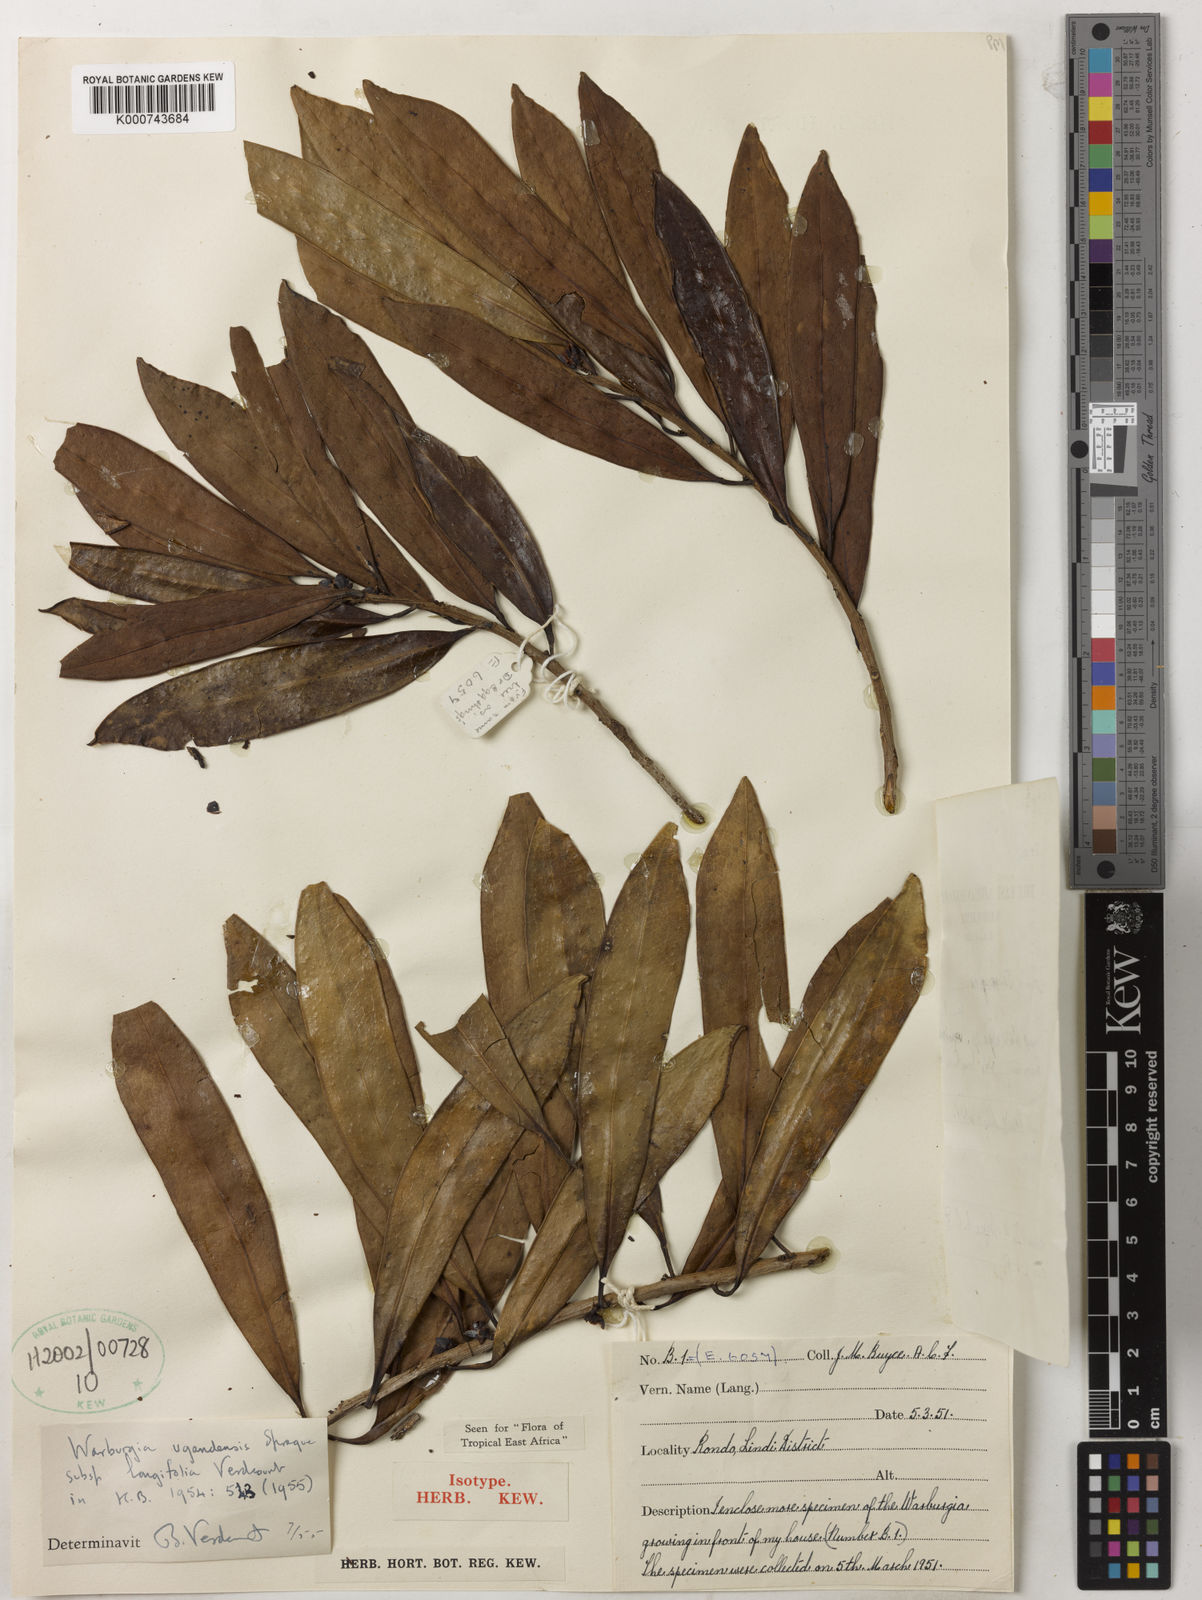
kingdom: Plantae
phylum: Tracheophyta
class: Magnoliopsida
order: Canellales
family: Canellaceae
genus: Warburgia
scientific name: Warburgia ugandensis
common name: East african greenbark
